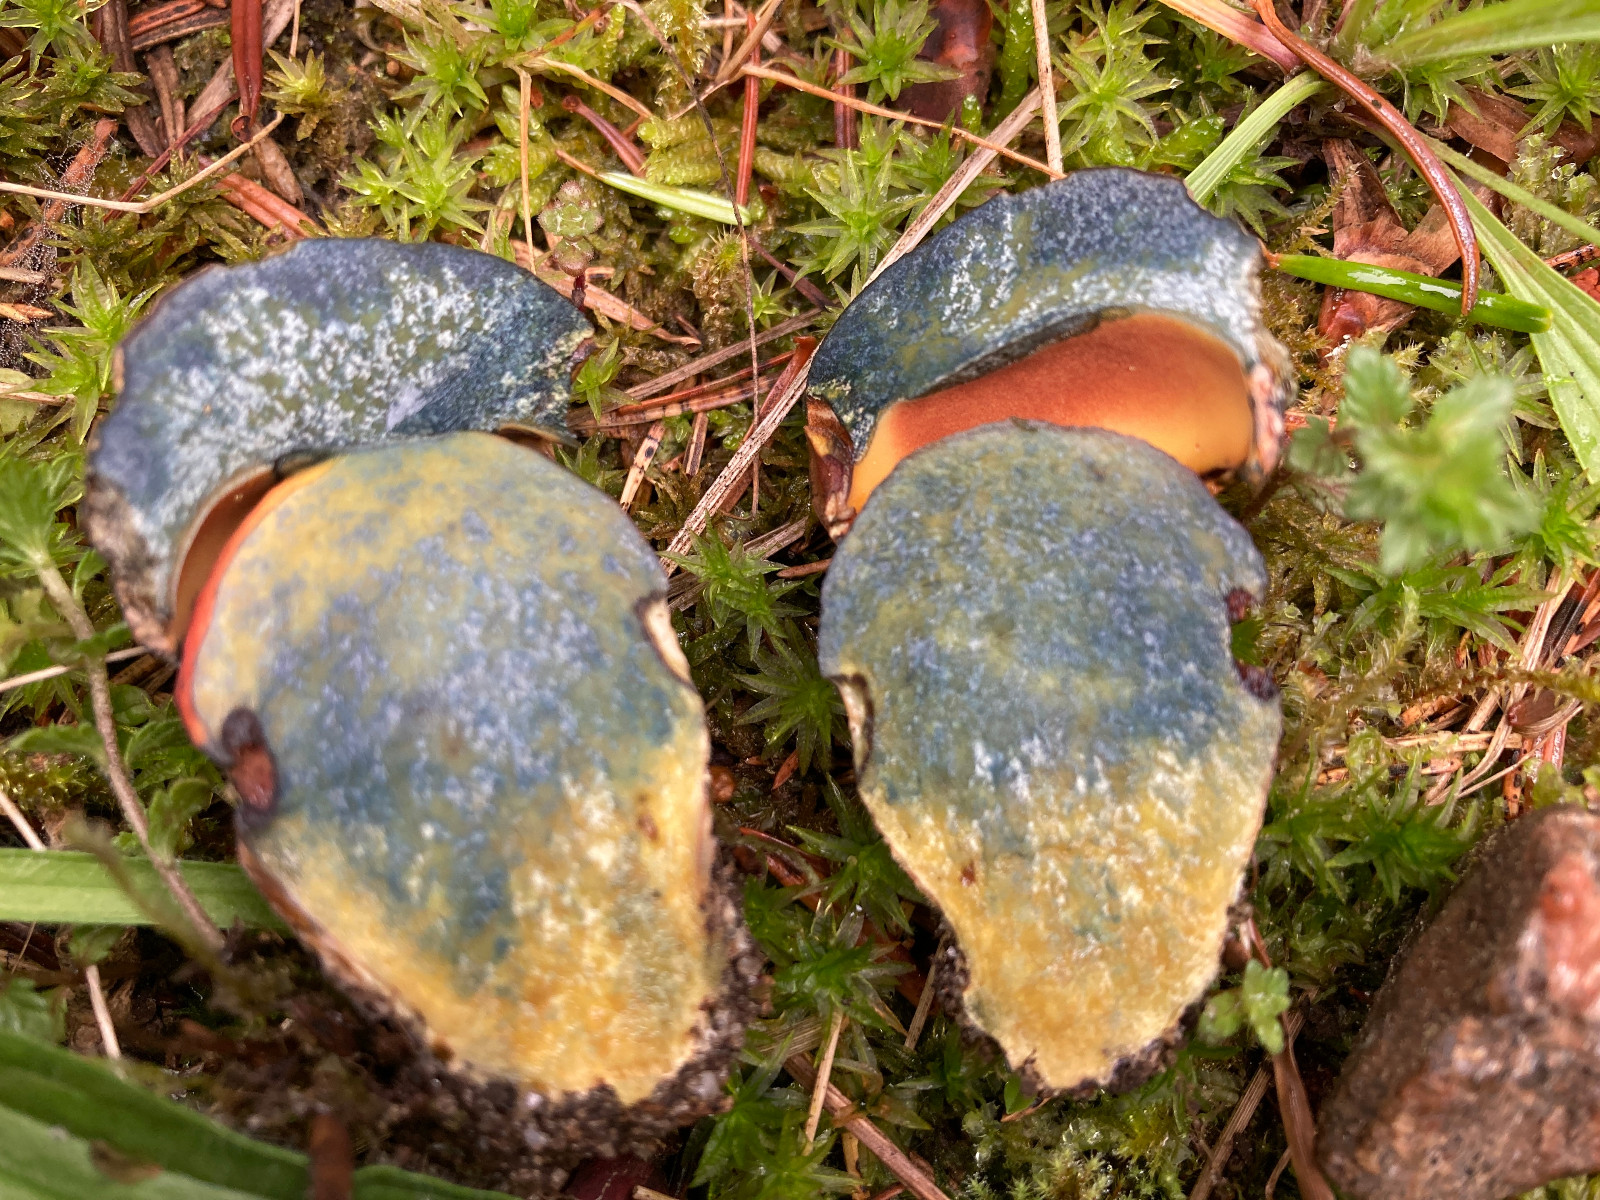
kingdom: Fungi
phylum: Basidiomycota
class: Agaricomycetes
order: Boletales
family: Boletaceae
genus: Neoboletus
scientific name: Neoboletus erythropus
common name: punktstokket indigorørhat
